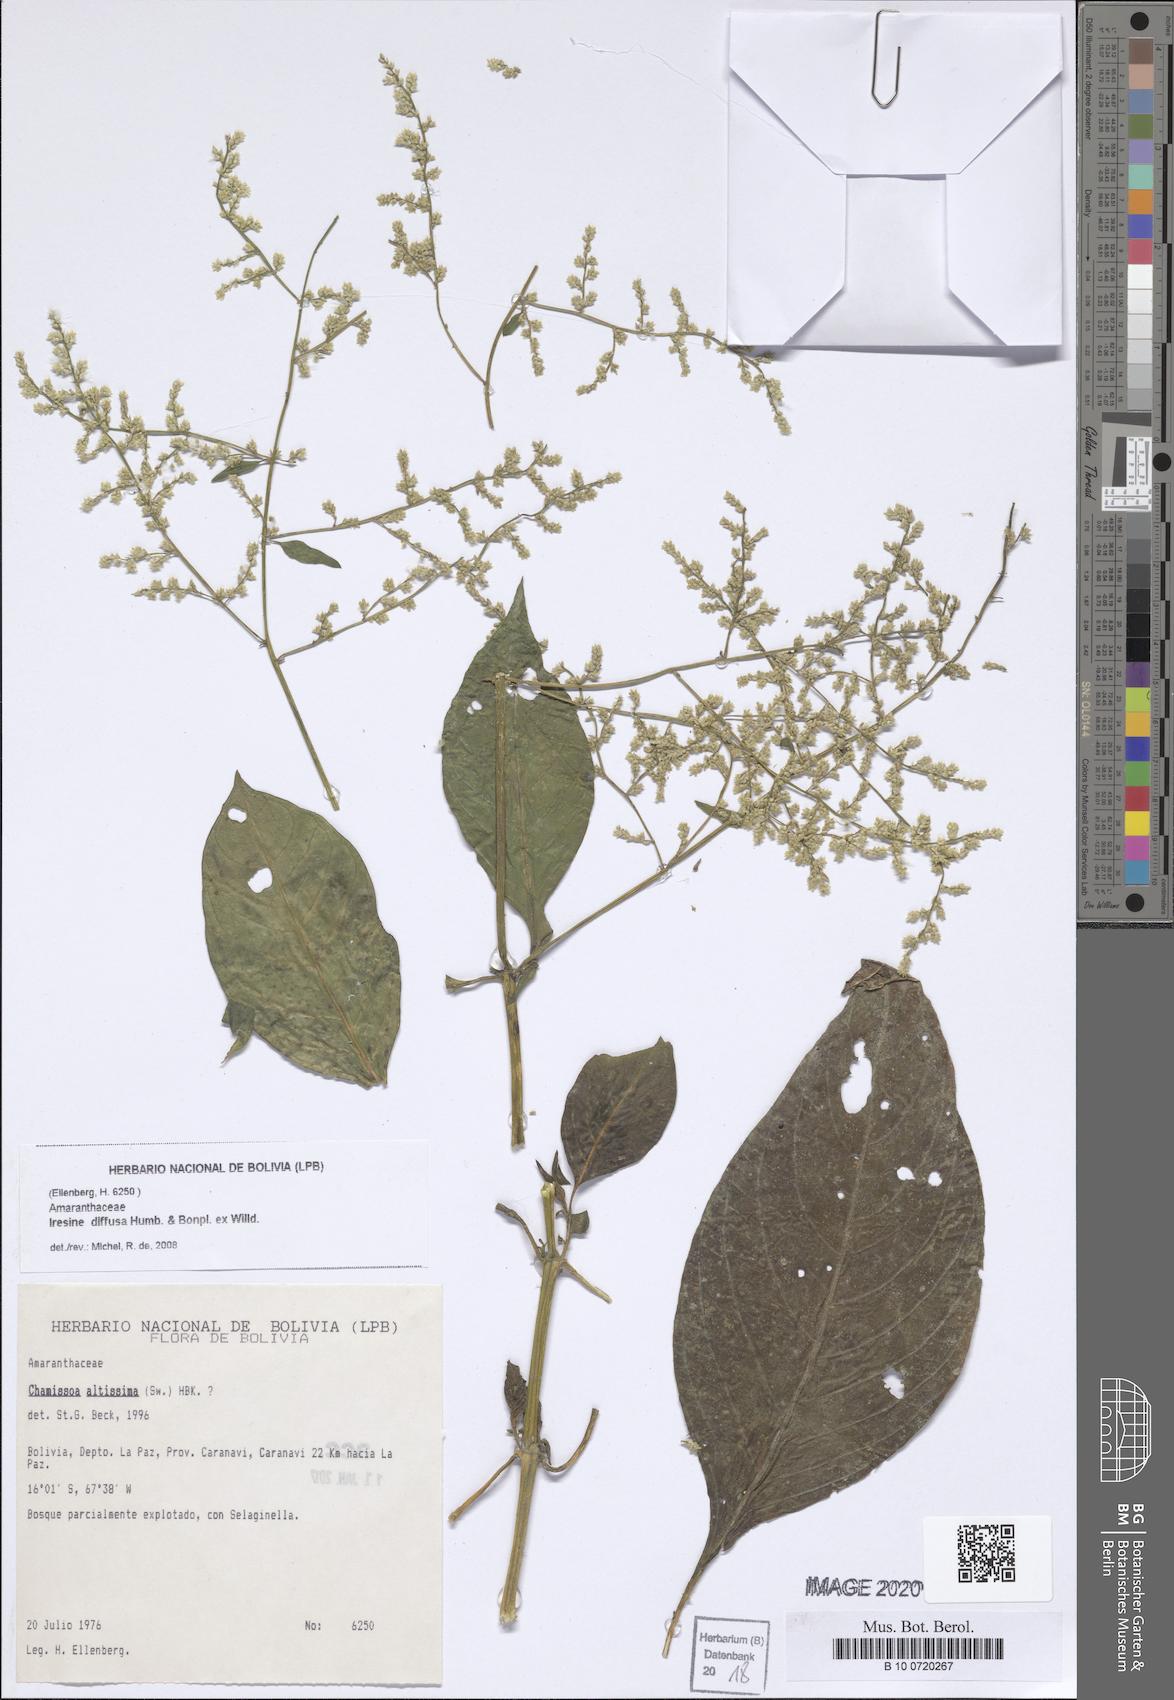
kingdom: Plantae
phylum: Tracheophyta
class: Magnoliopsida
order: Caryophyllales
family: Amaranthaceae
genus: Iresine
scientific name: Iresine diffusa
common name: Juba's-bush
